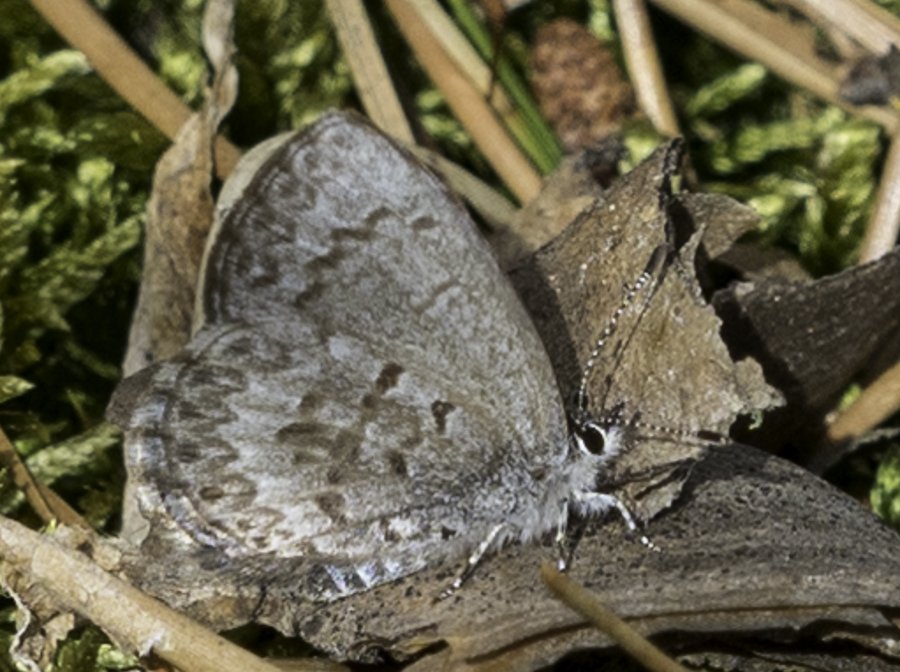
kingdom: Animalia
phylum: Arthropoda
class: Insecta
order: Lepidoptera
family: Lycaenidae
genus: Celastrina
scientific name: Celastrina lucia
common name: Northern Spring Azure
